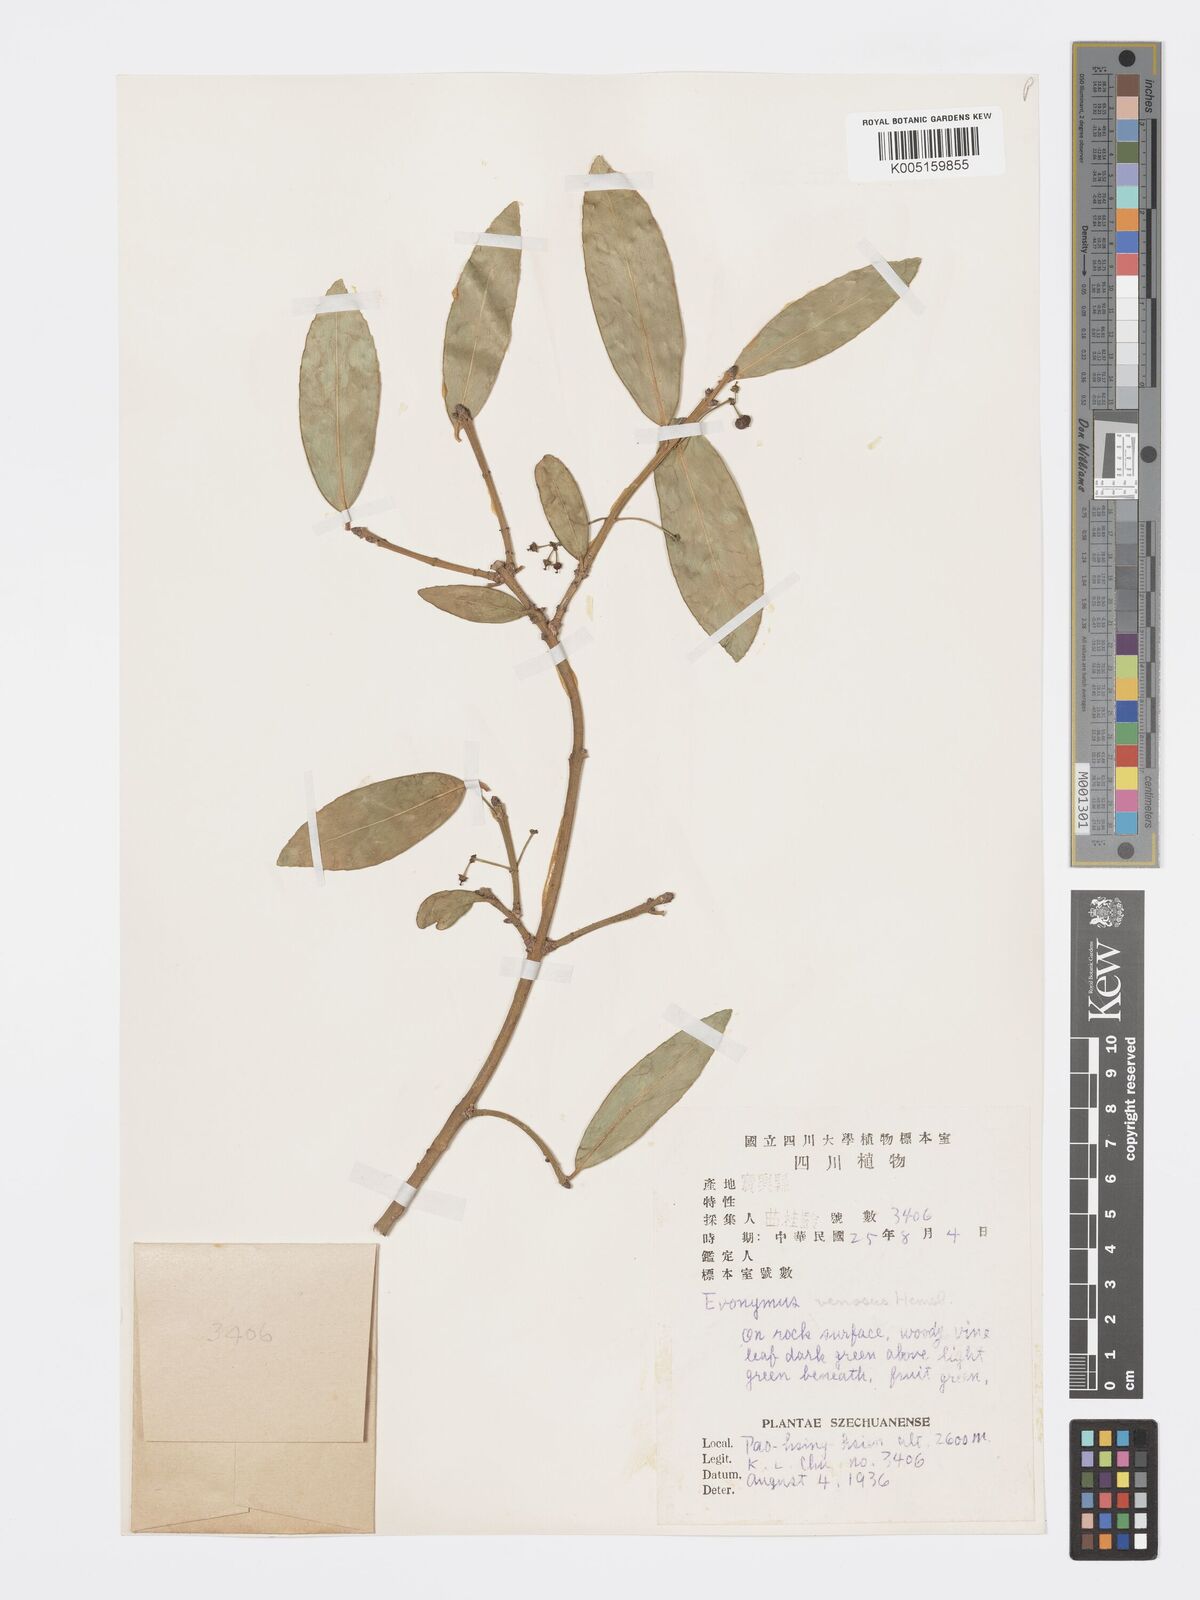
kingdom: Plantae
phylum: Tracheophyta
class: Magnoliopsida
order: Celastrales
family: Celastraceae
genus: Euonymus
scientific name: Euonymus venosus
